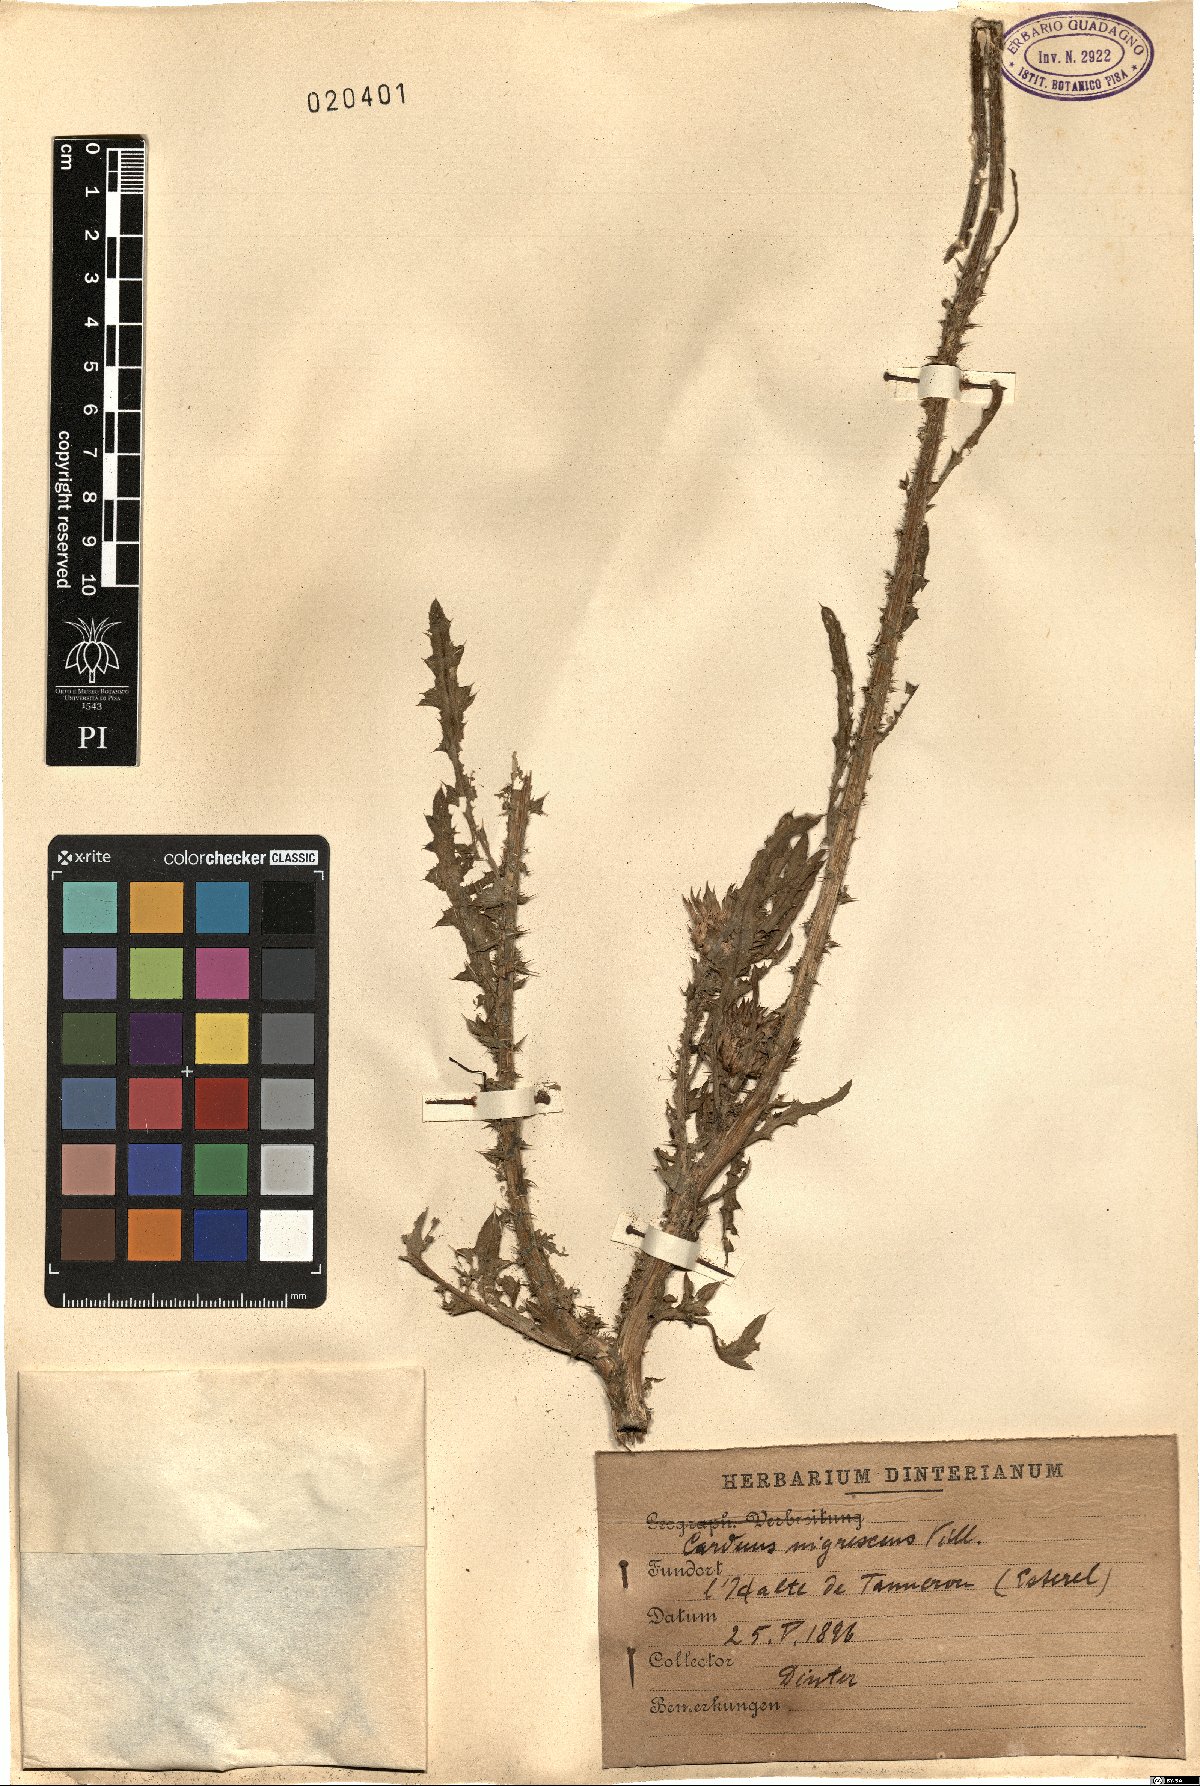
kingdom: Plantae
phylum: Tracheophyta
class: Magnoliopsida
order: Asterales
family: Asteraceae
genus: Carduus
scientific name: Carduus nigrescens
